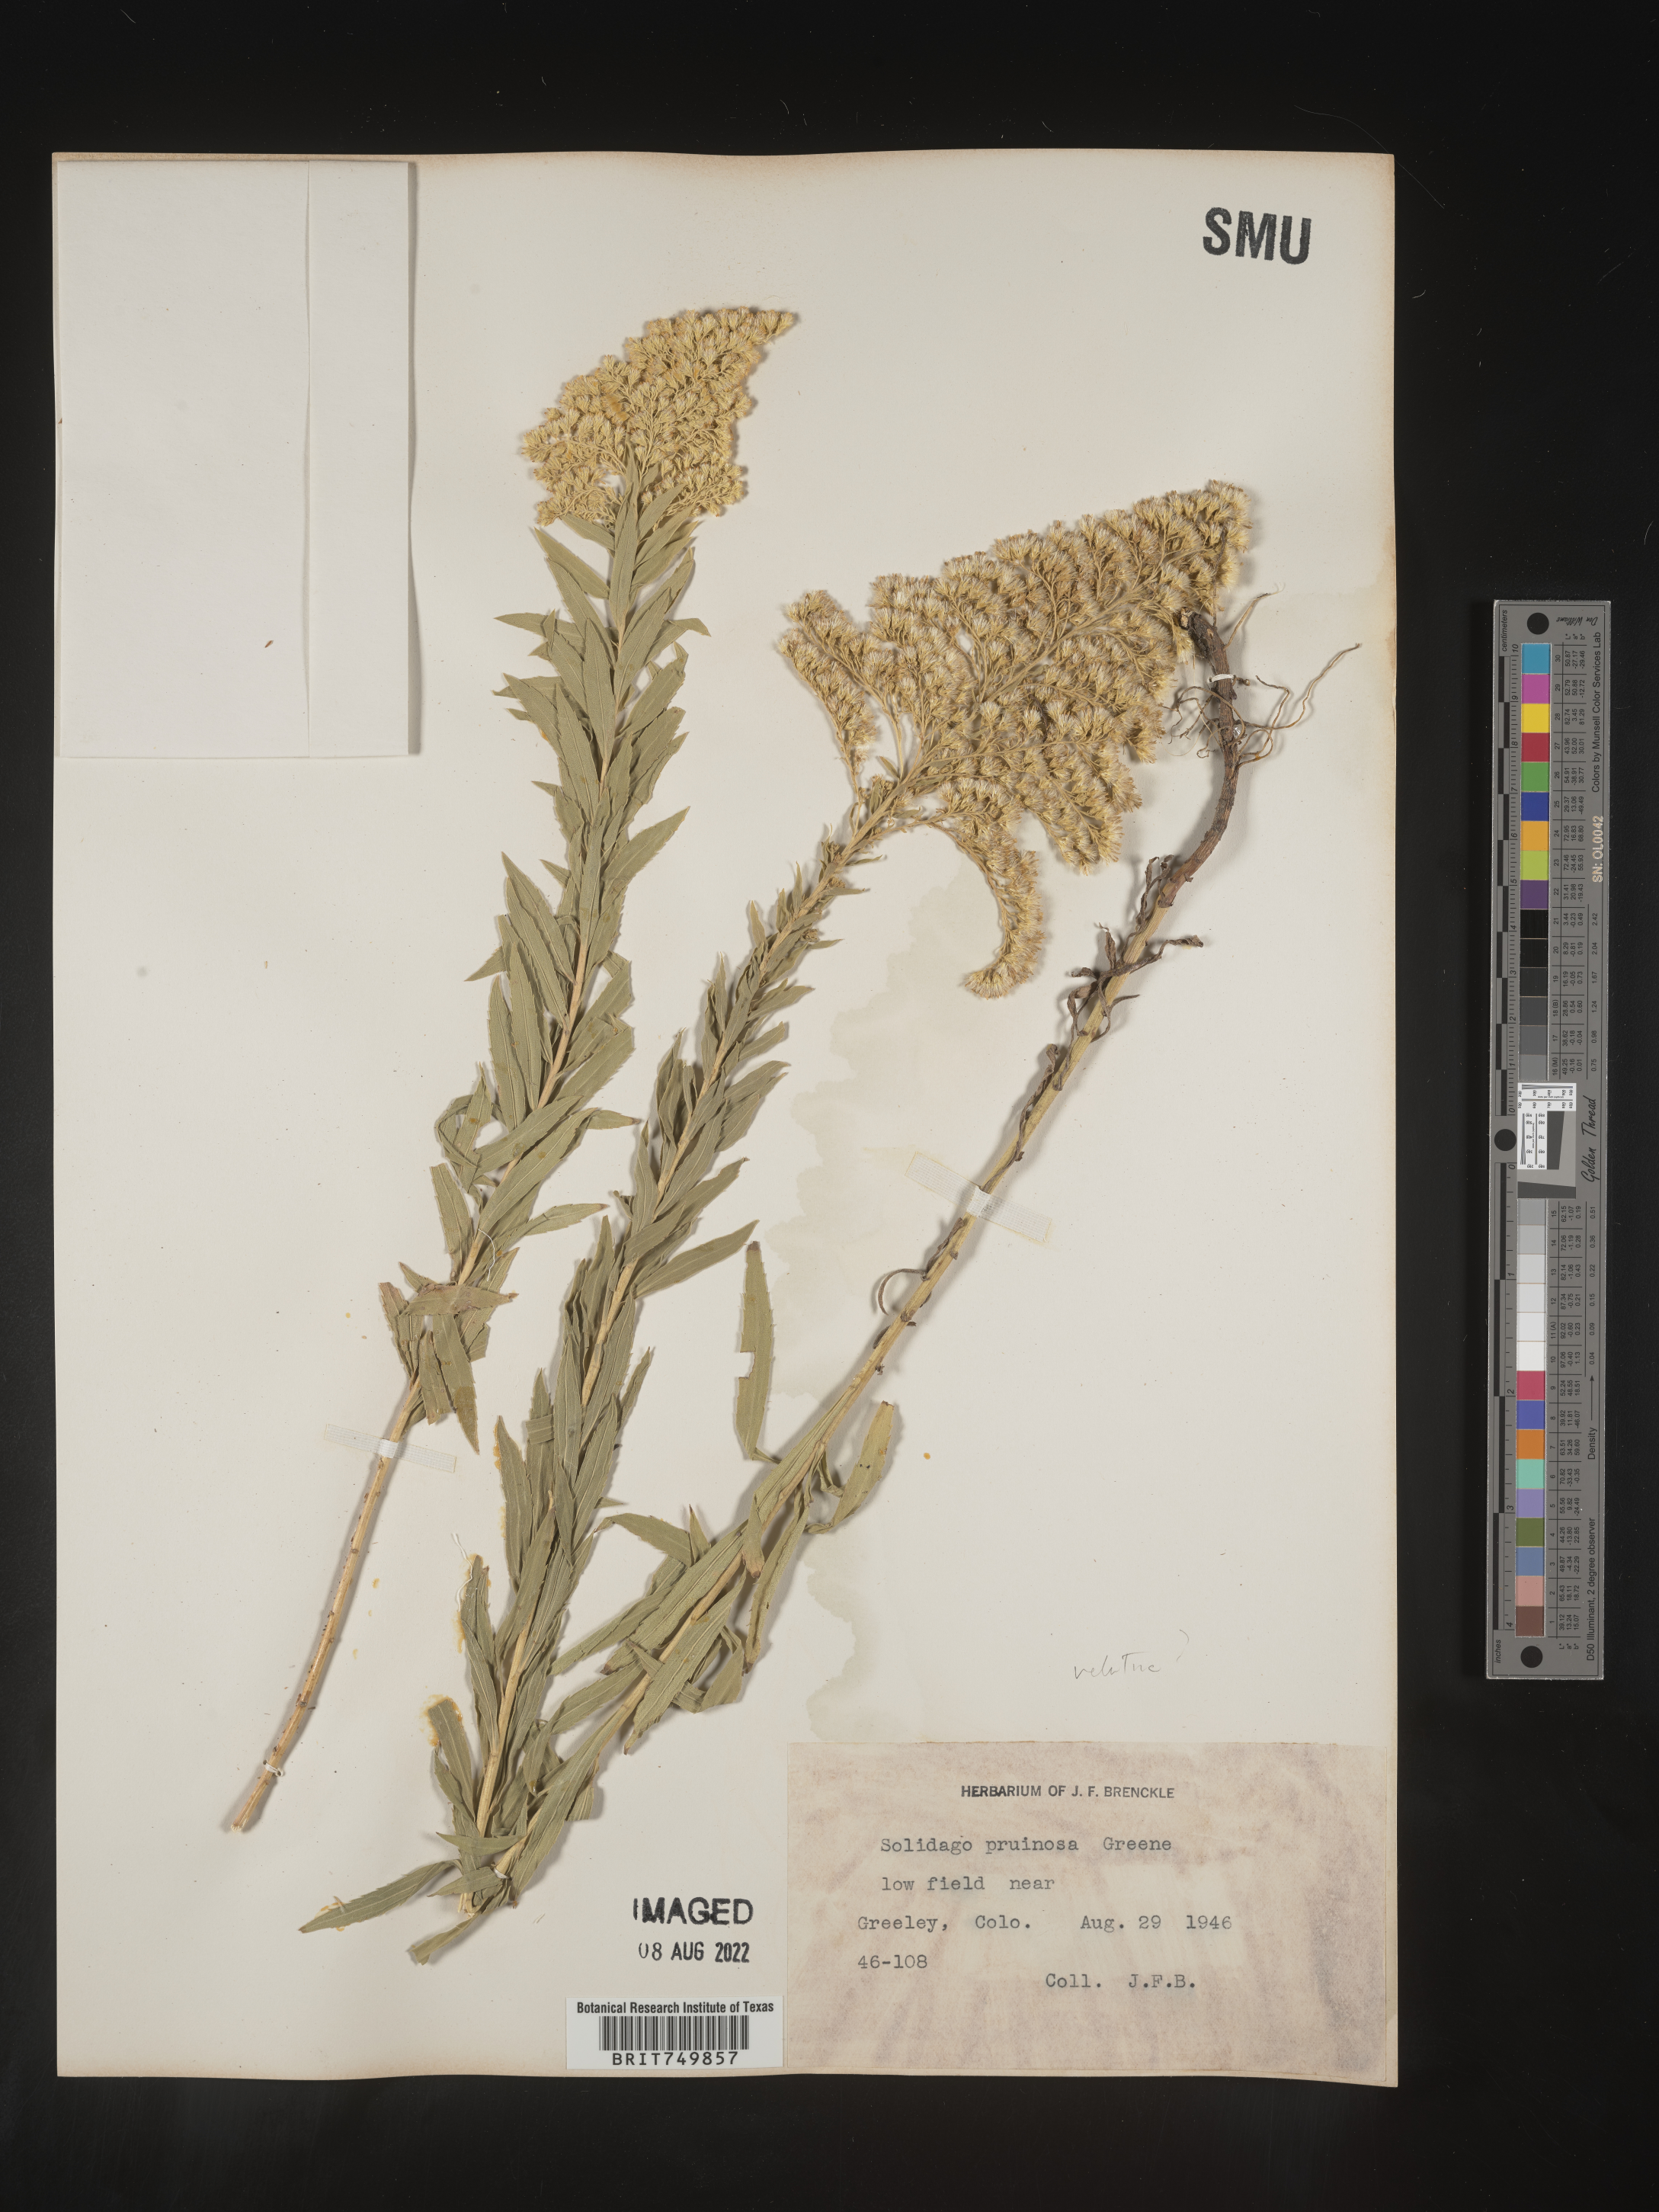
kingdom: Plantae
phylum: Tracheophyta
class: Magnoliopsida
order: Asterales
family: Asteraceae
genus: Solidago
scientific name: Solidago velutina
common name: Three-nerve goldenrod
